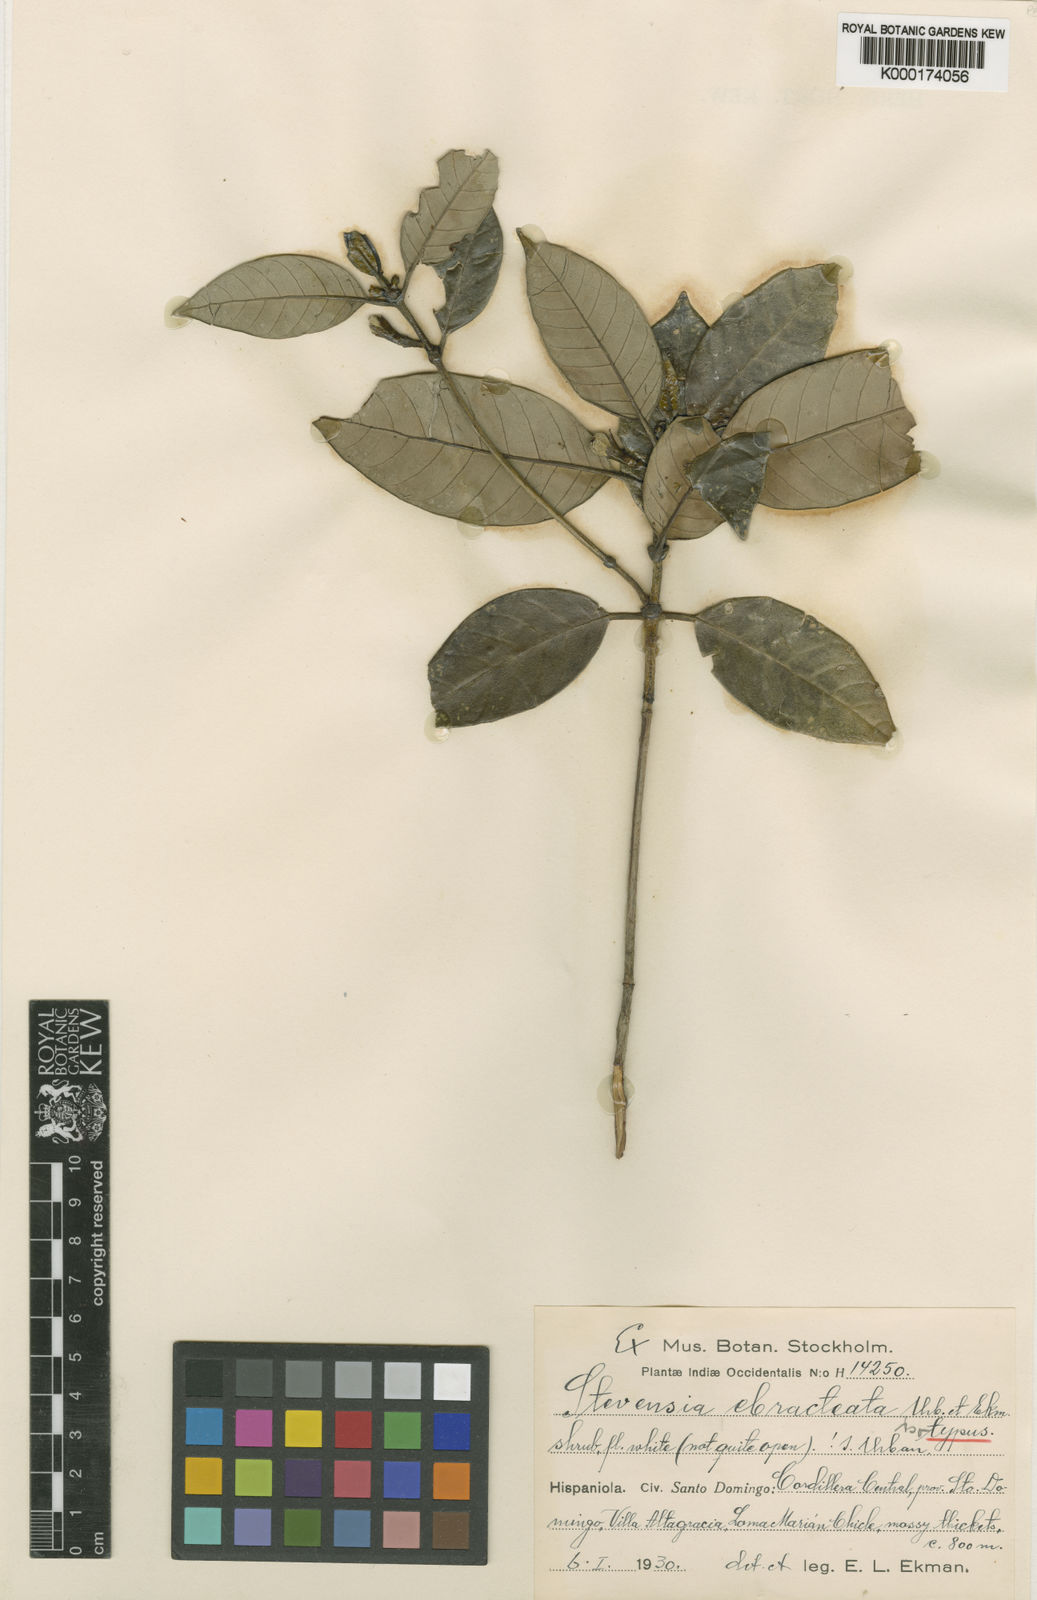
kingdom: Plantae
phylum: Tracheophyta
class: Magnoliopsida
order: Gentianales
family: Rubiaceae
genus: Stevensia
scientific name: Stevensia ebracteata
